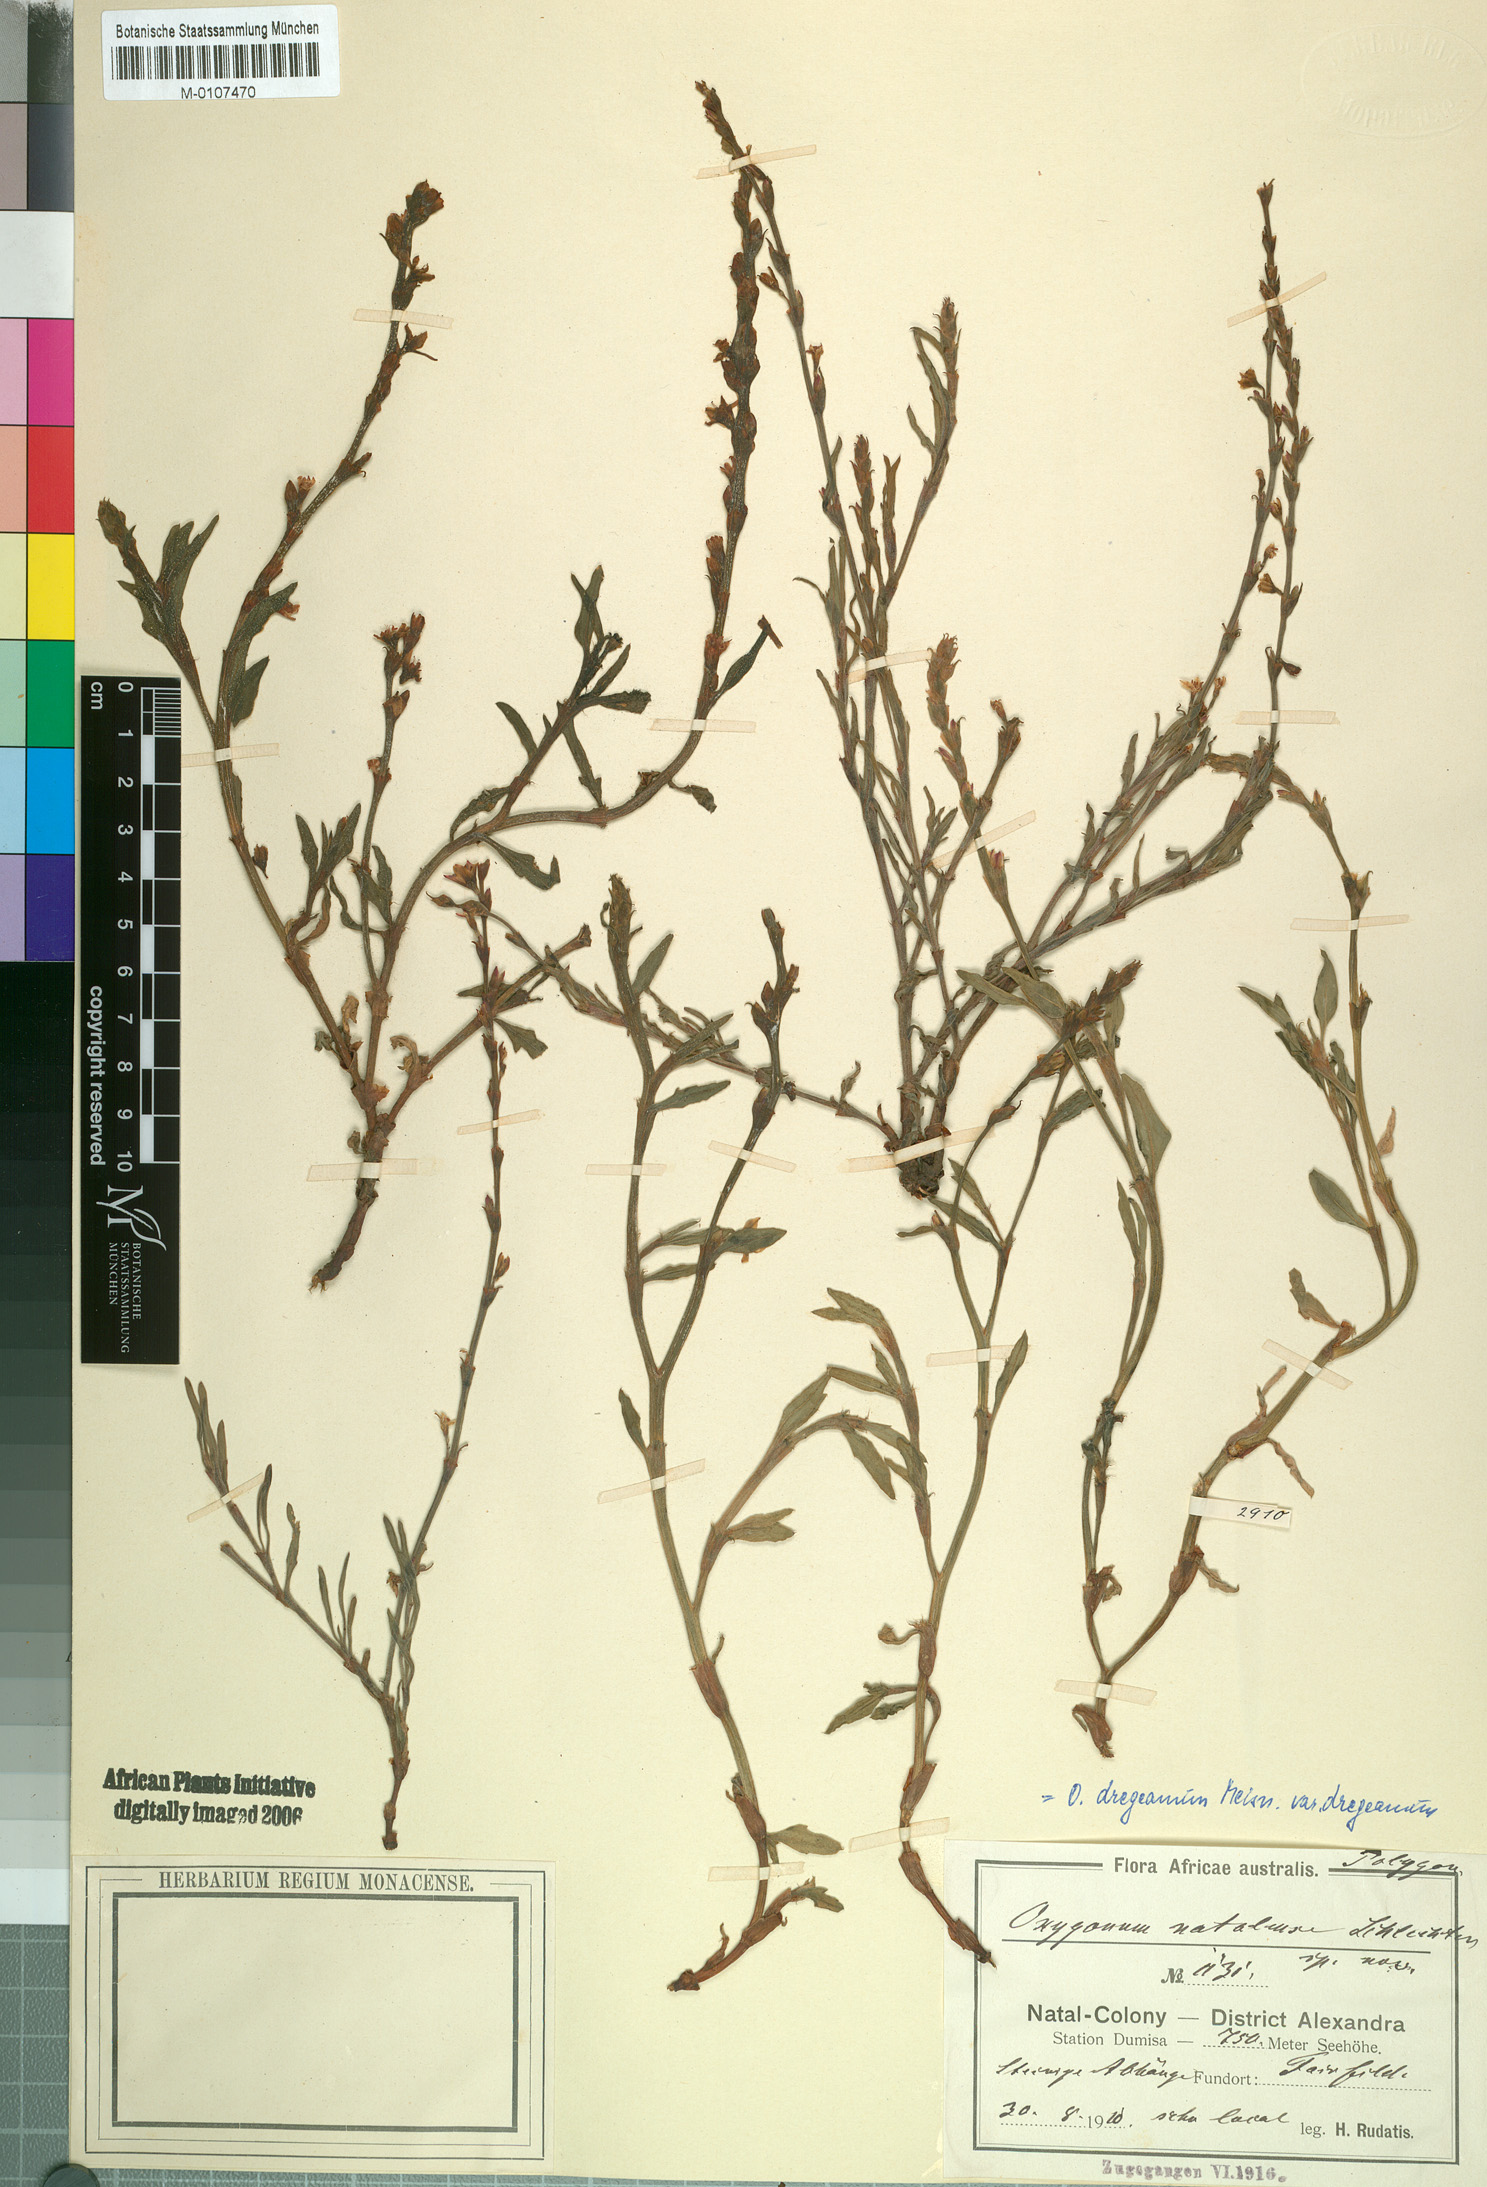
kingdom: Plantae
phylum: Tracheophyta
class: Magnoliopsida
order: Caryophyllales
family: Polygonaceae
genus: Oxygonum
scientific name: Oxygonum dregeanum
